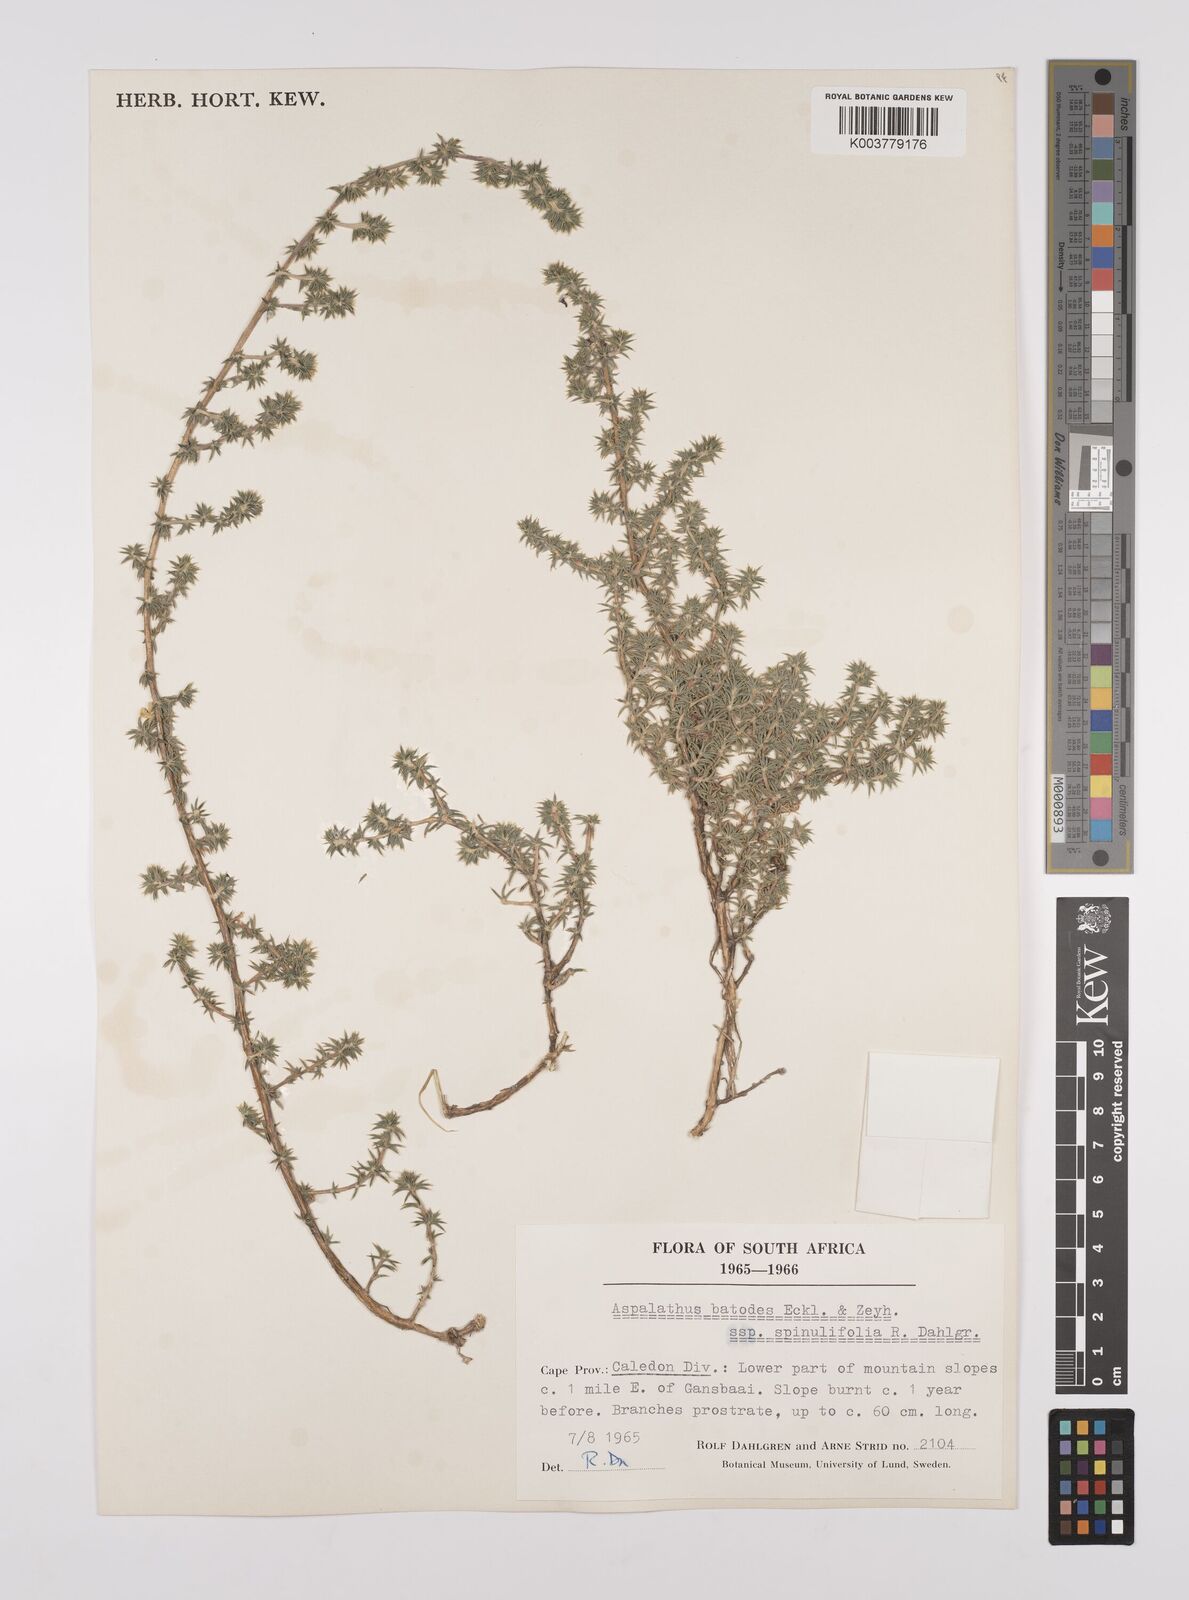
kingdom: Plantae
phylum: Tracheophyta
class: Magnoliopsida
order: Fabales
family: Fabaceae
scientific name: Fabaceae
